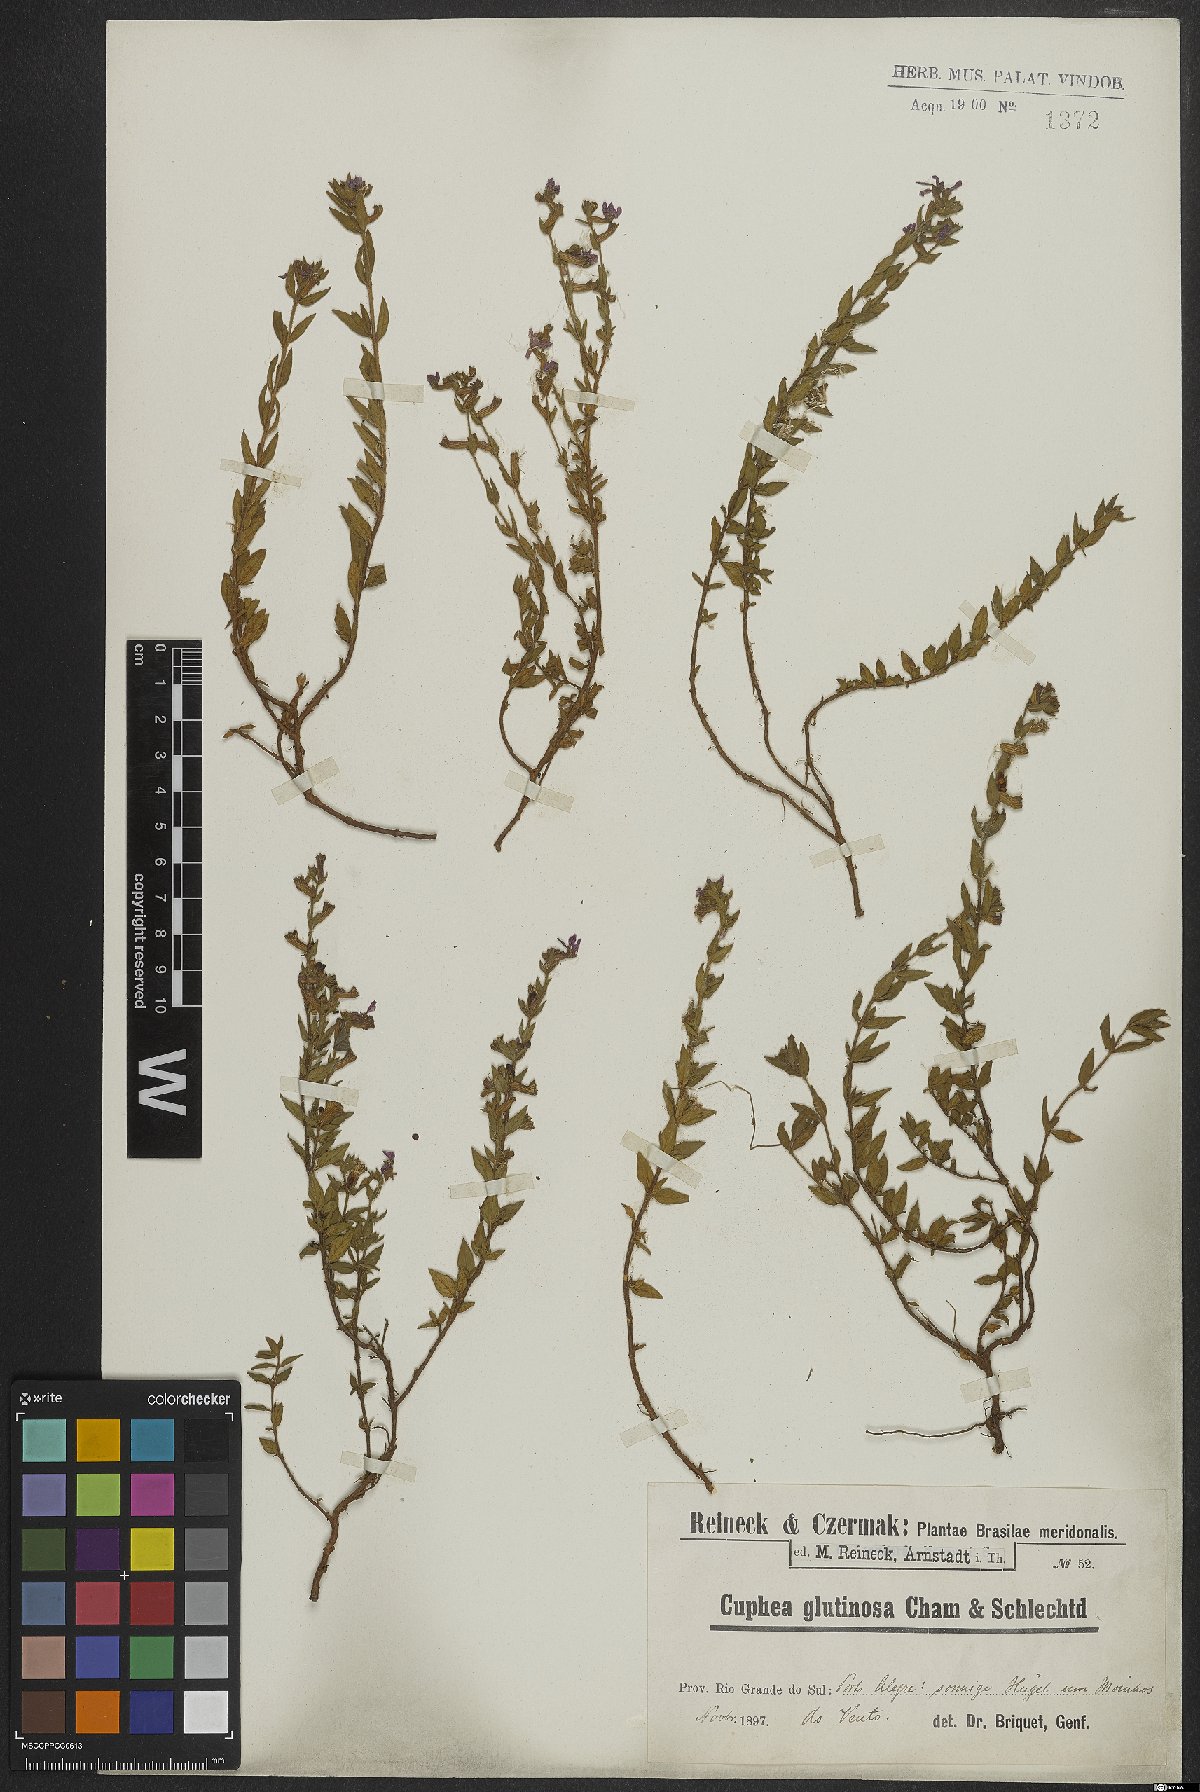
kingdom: Plantae
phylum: Tracheophyta
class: Magnoliopsida
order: Myrtales
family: Lythraceae
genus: Cuphea
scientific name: Cuphea glutinosa
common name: Sticky waxweed
